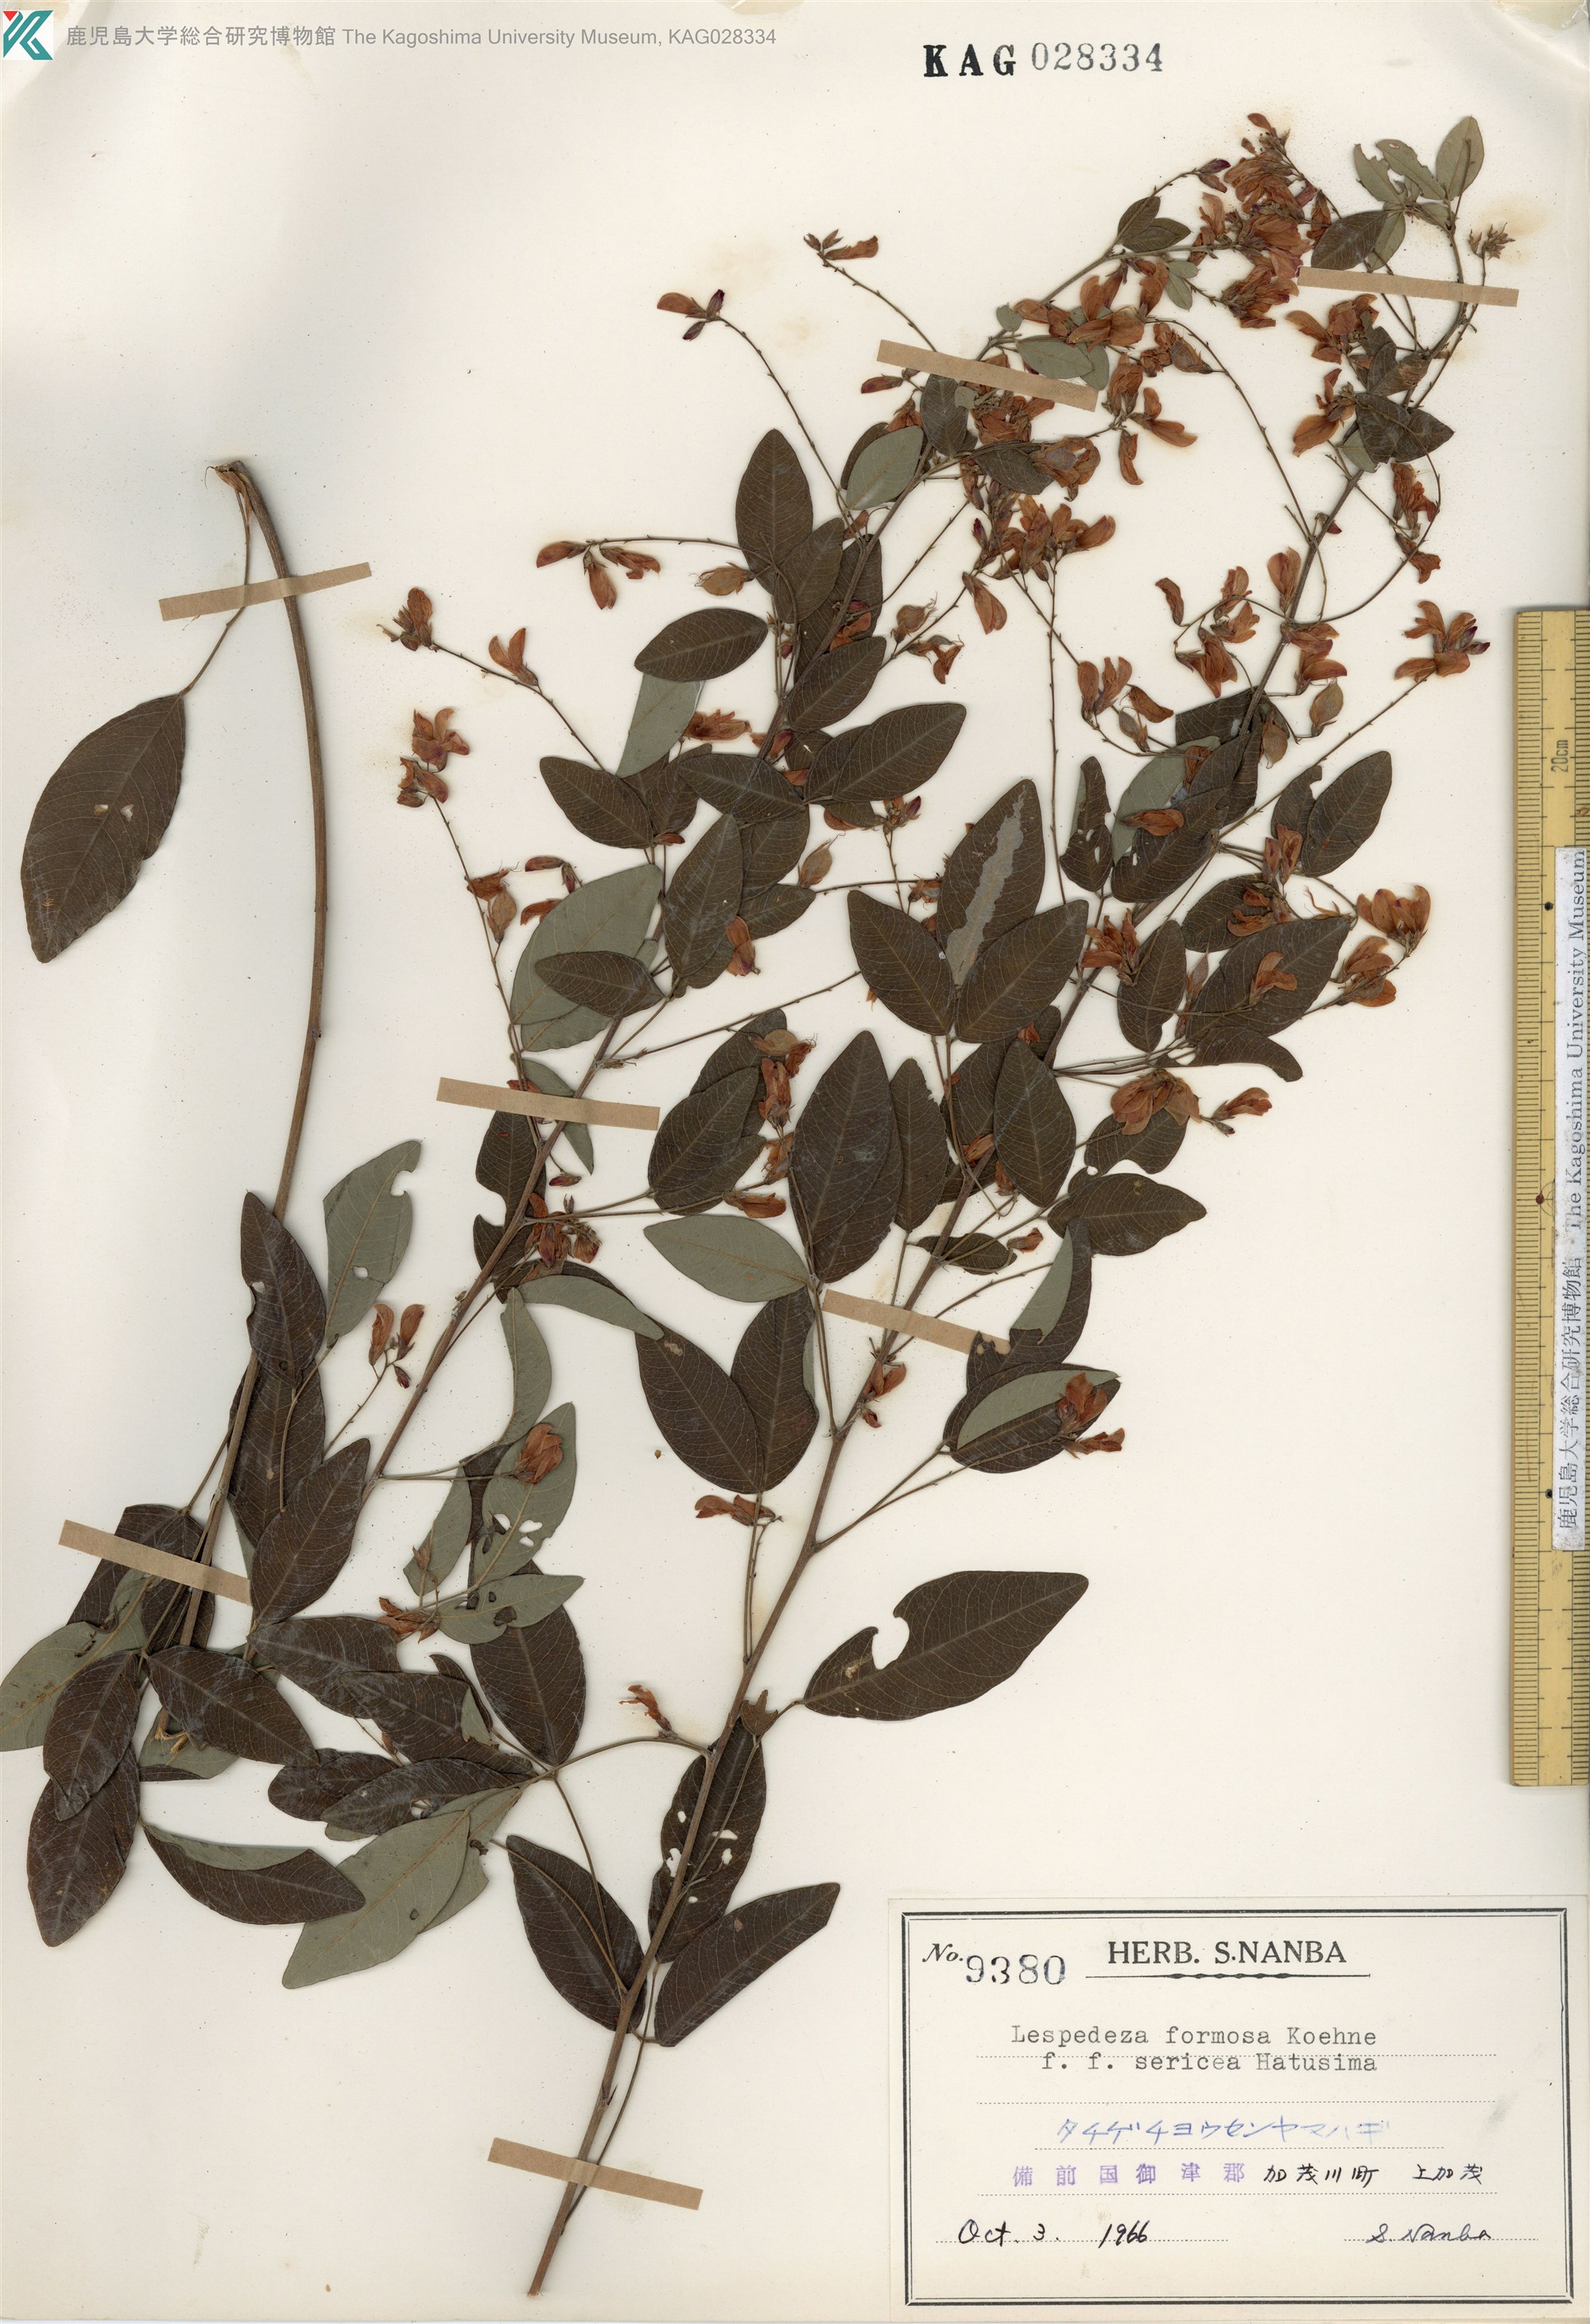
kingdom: Plantae
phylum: Tracheophyta
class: Magnoliopsida
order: Fabales
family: Fabaceae
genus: Lespedeza
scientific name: Lespedeza thunbergii
